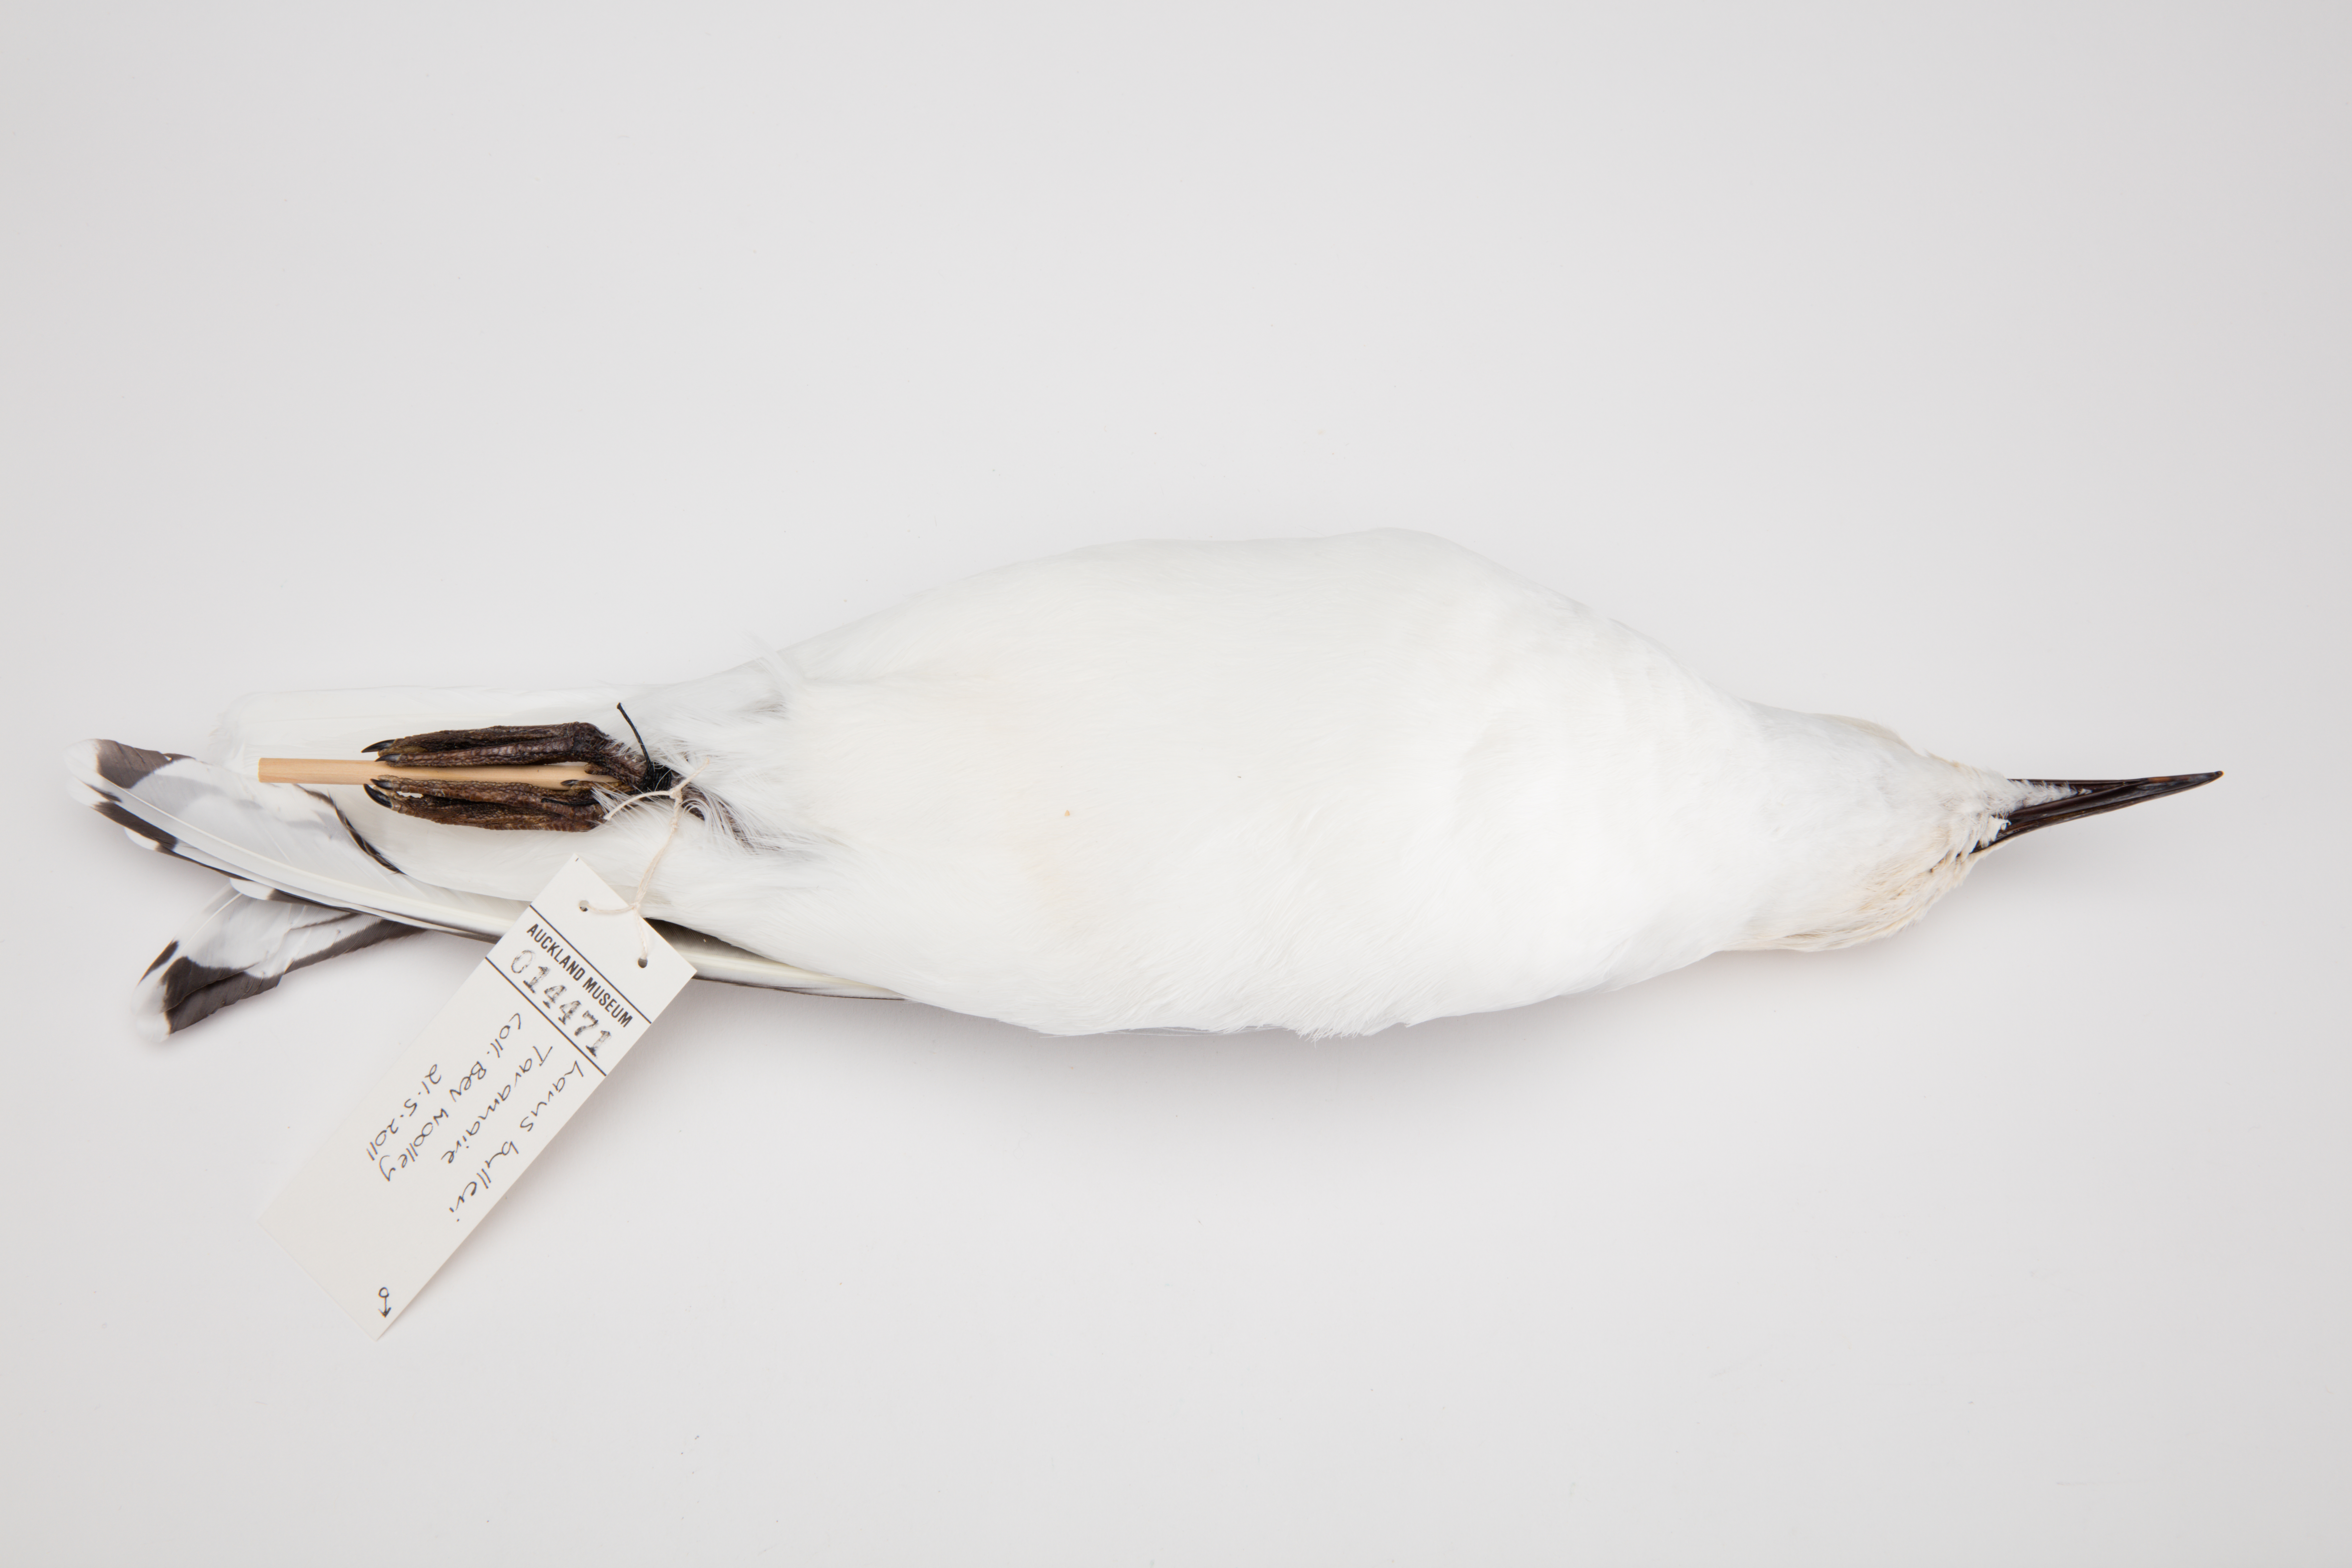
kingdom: Animalia
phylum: Chordata
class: Aves
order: Charadriiformes
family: Laridae
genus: Chroicocephalus
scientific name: Chroicocephalus bulleri
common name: Black-billed gull
